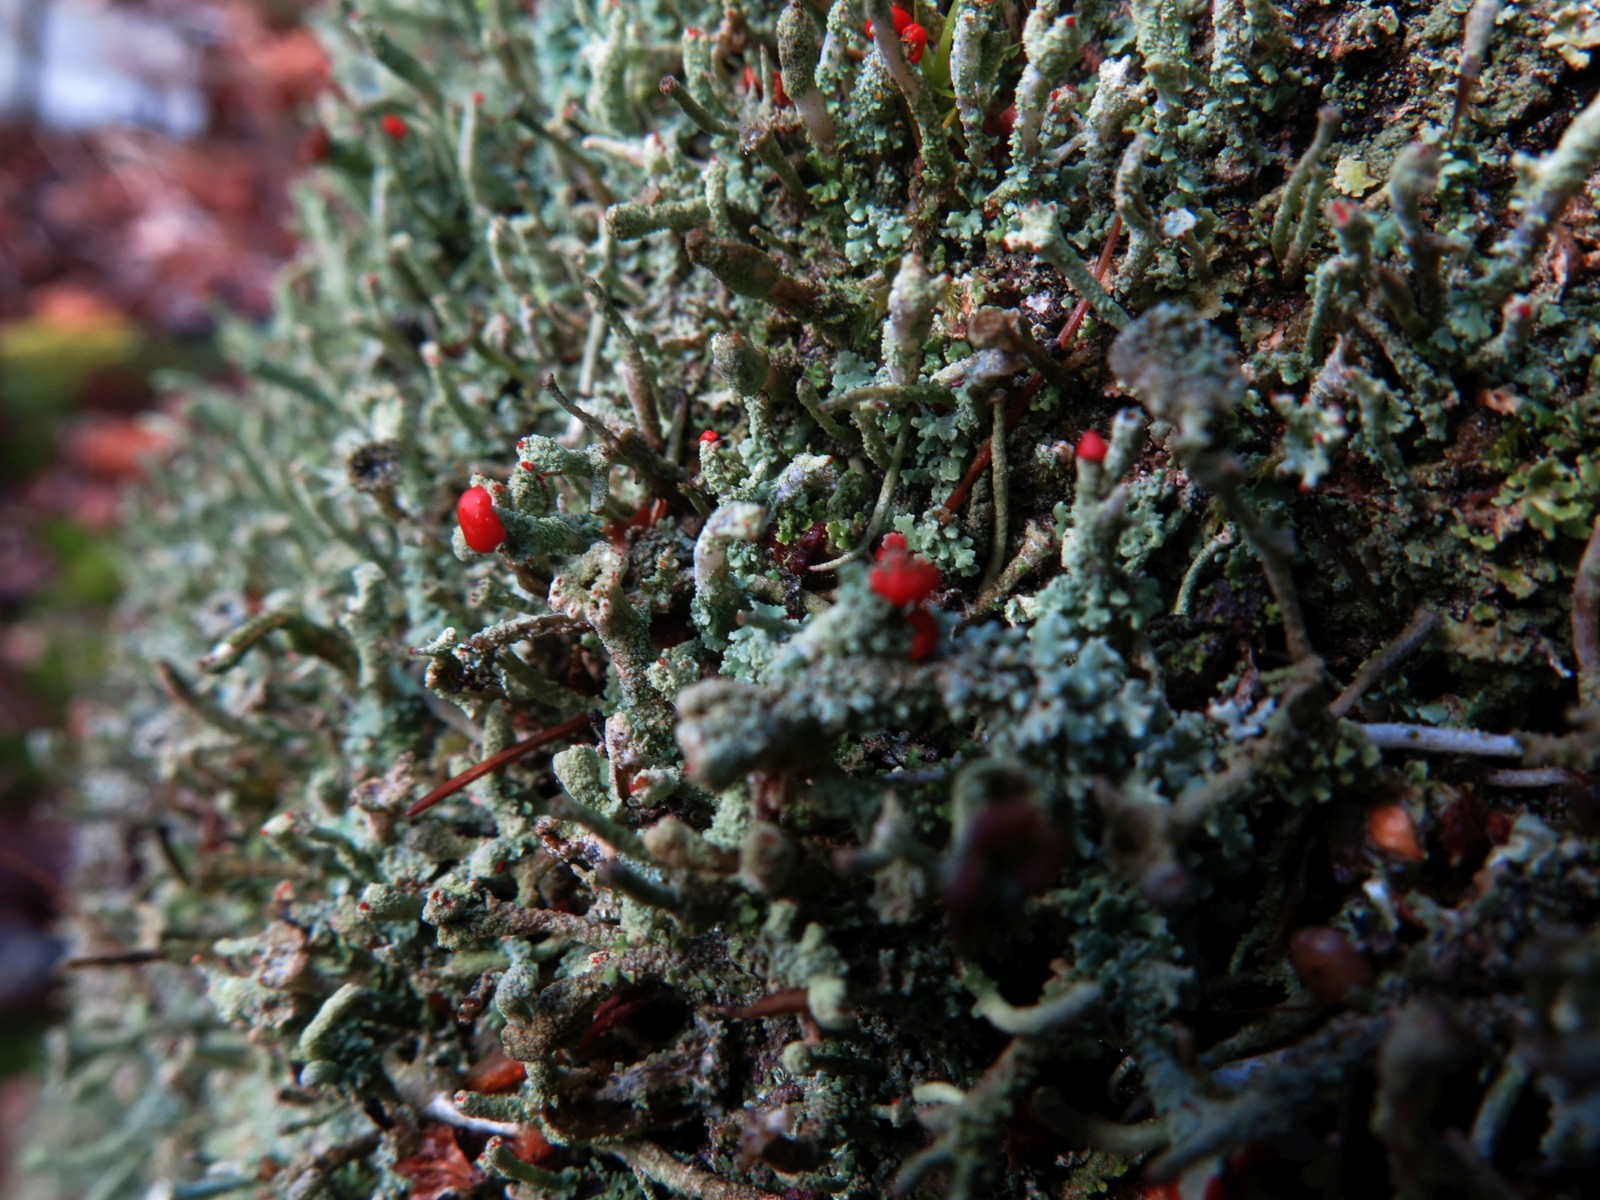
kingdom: Fungi
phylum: Ascomycota
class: Lecanoromycetes
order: Lecanorales
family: Cladoniaceae
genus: Cladonia
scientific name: Cladonia floerkeana
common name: lakrød bægerlav
